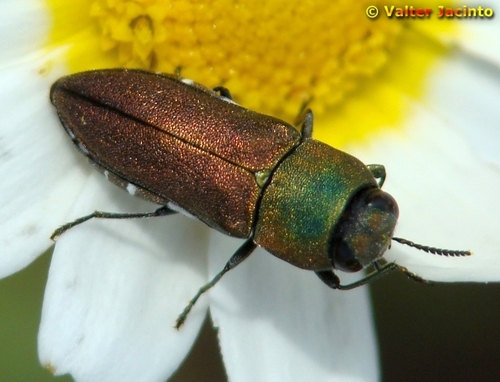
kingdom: Animalia
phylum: Arthropoda
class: Insecta
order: Coleoptera
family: Buprestidae
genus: Anthaxia
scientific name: Anthaxia millefolii
